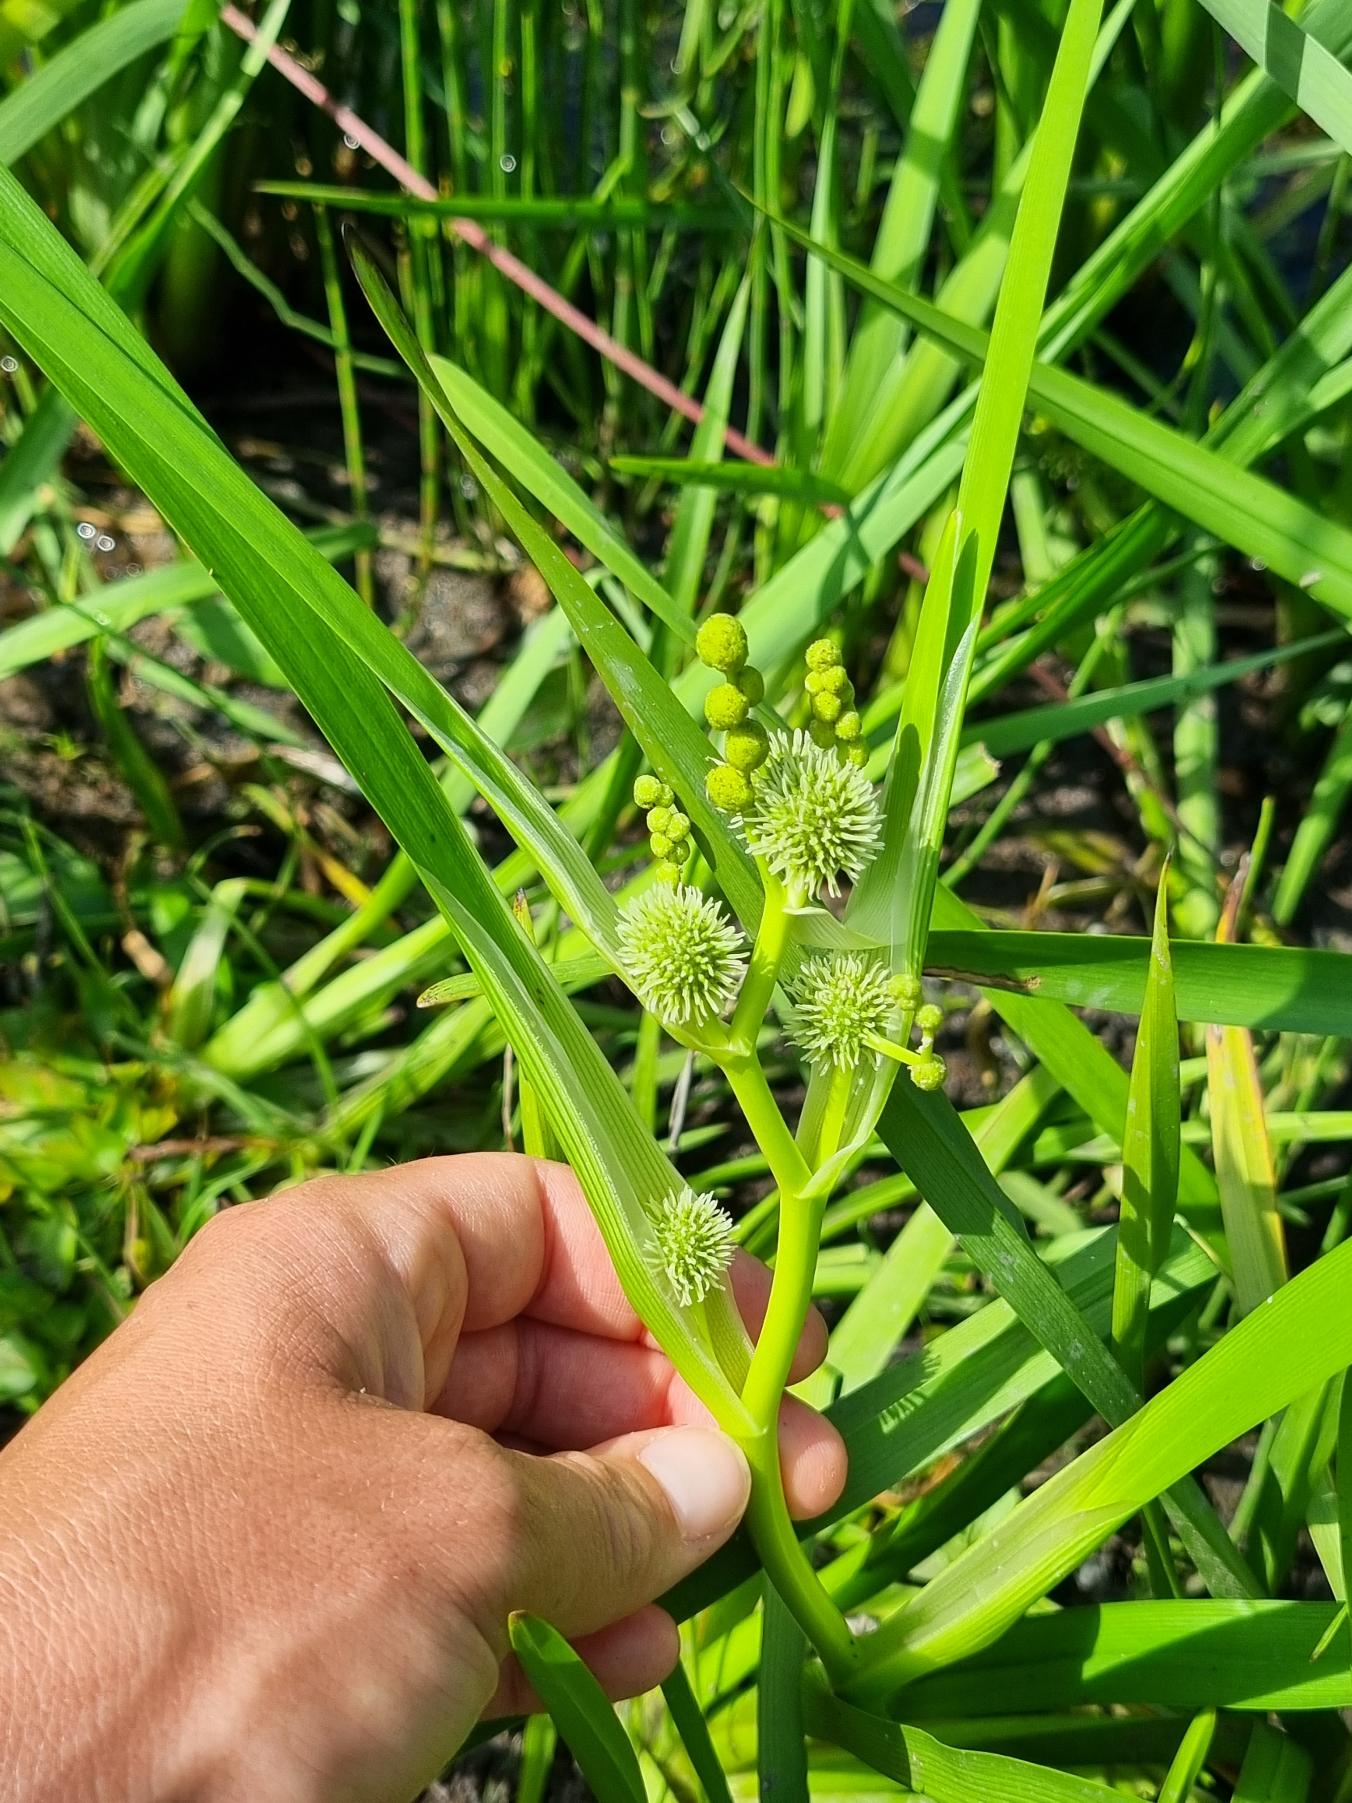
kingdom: Plantae
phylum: Tracheophyta
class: Liliopsida
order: Poales
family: Typhaceae
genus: Sparganium
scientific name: Sparganium erectum
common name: Grenet pindsvineknop
